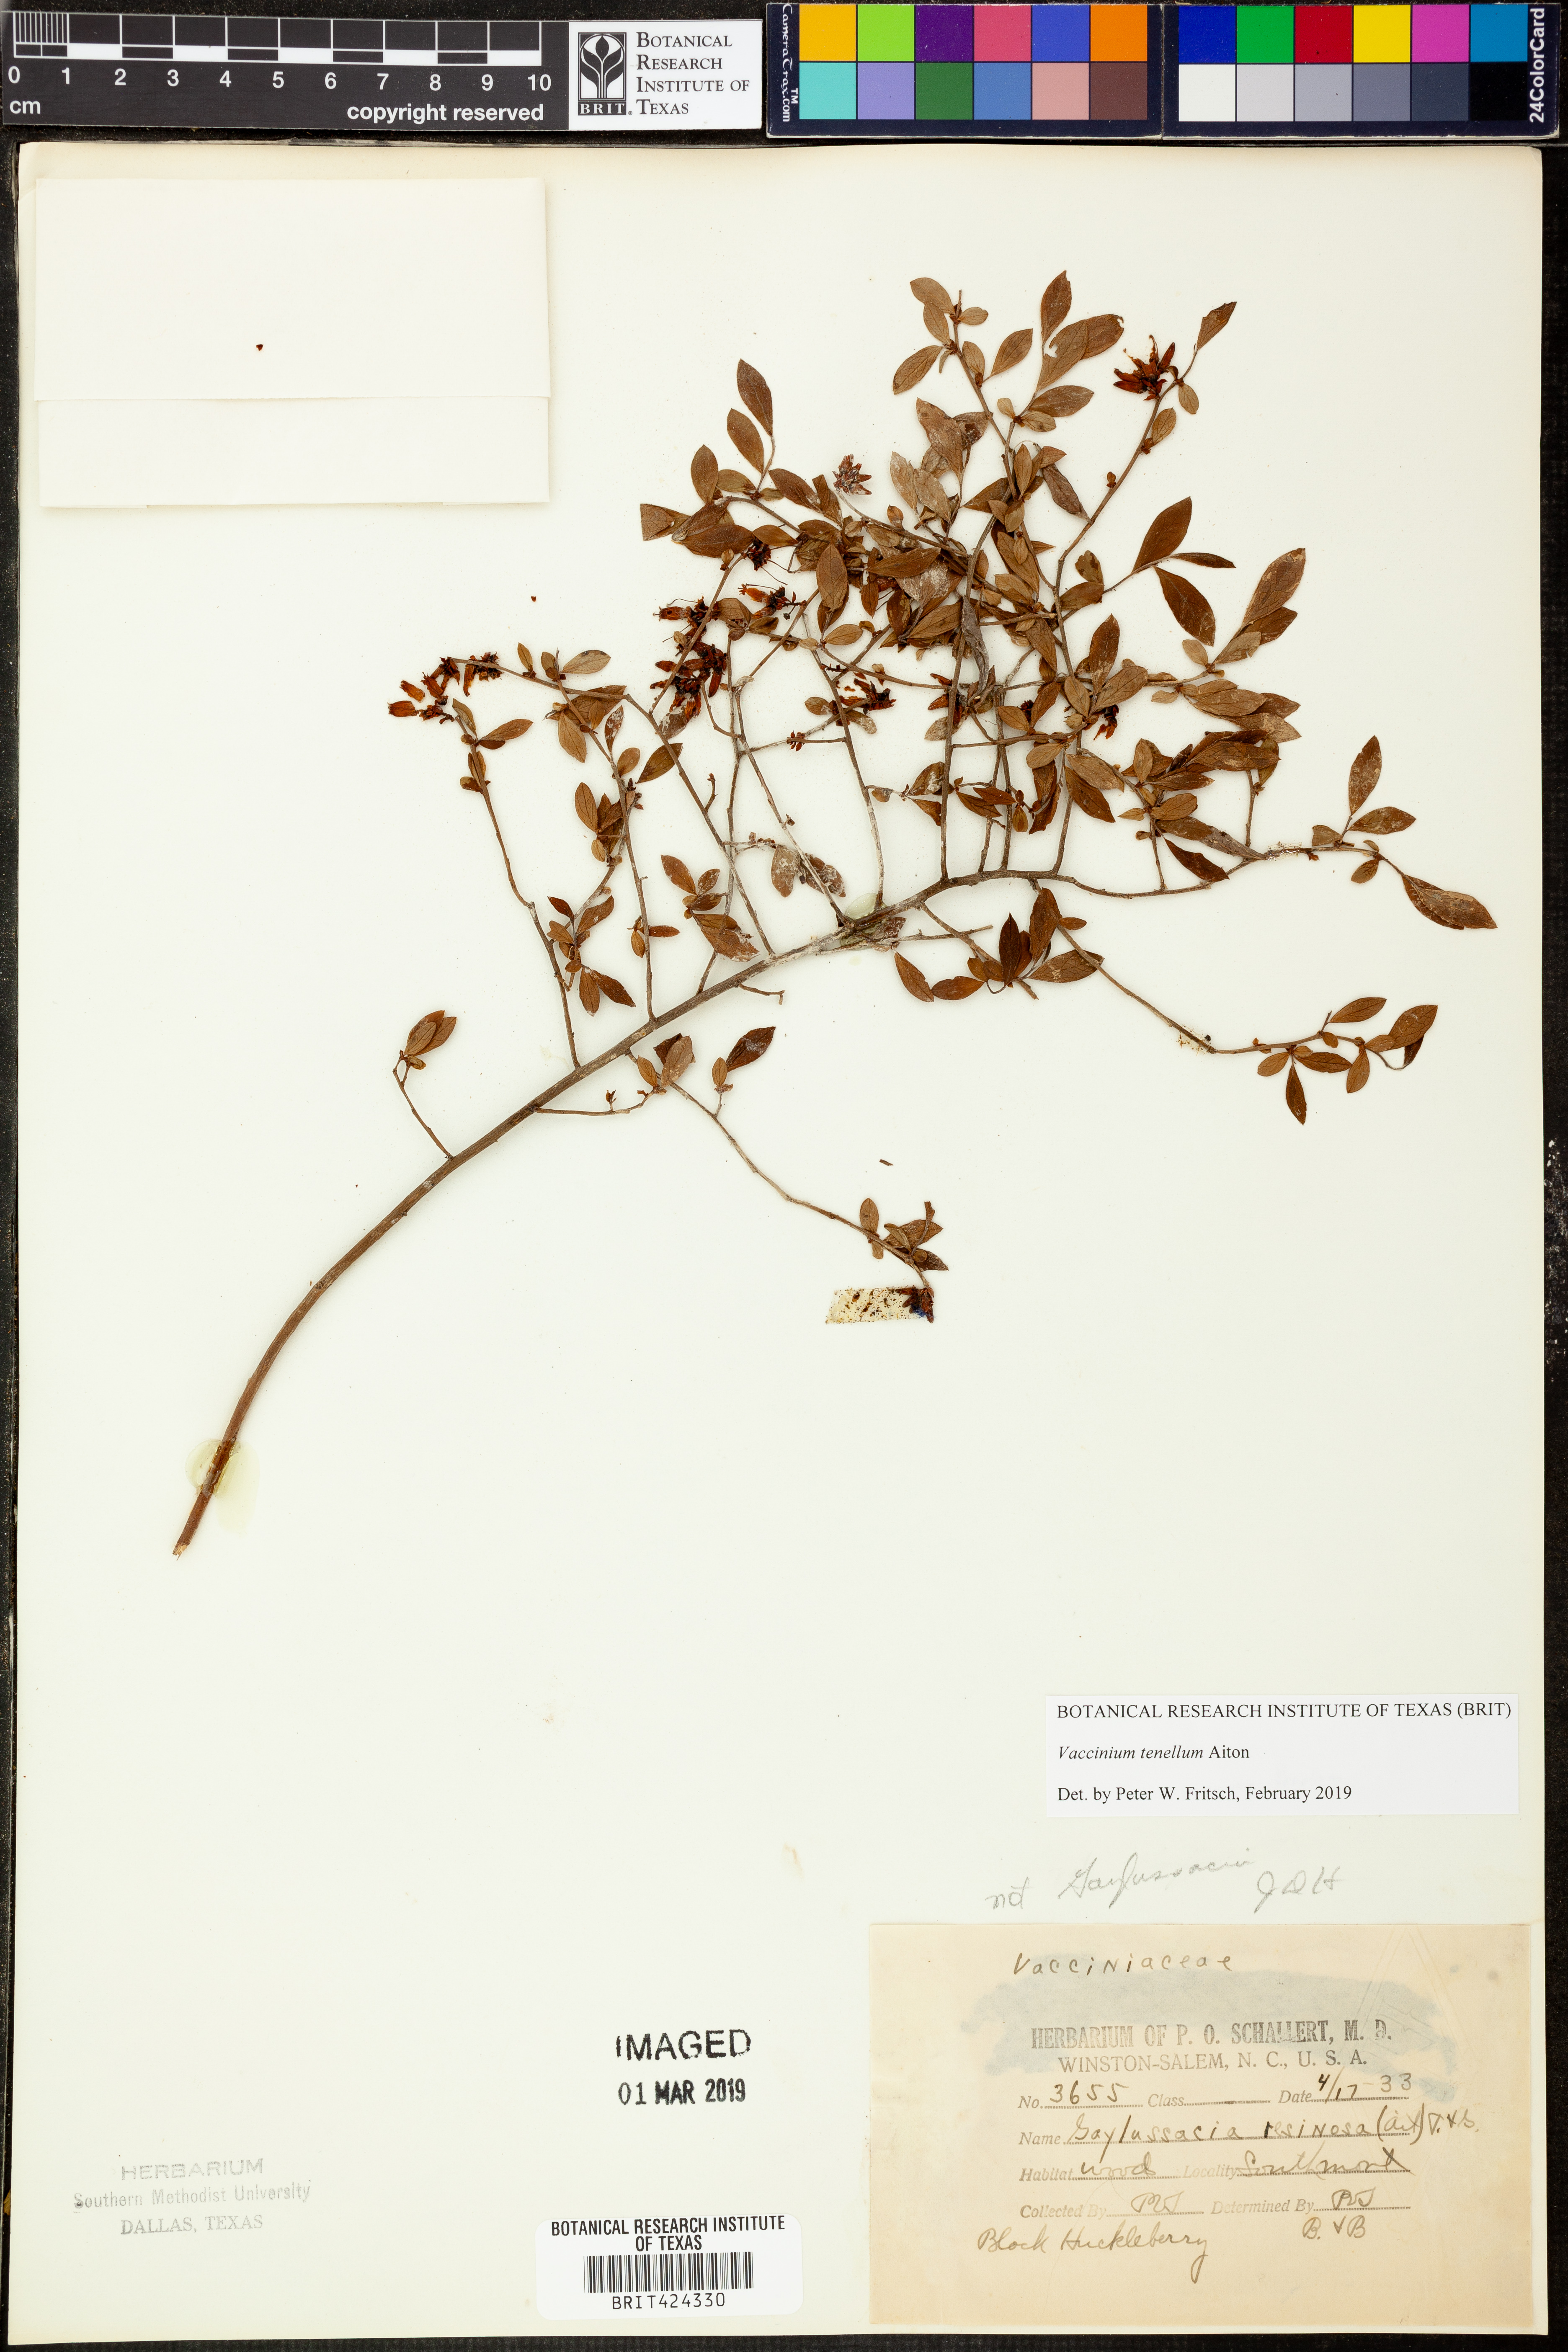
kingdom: Plantae
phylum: Tracheophyta
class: Magnoliopsida
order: Ericales
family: Ericaceae
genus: Vaccinium
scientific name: Vaccinium tenellum
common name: Southern blueberry
